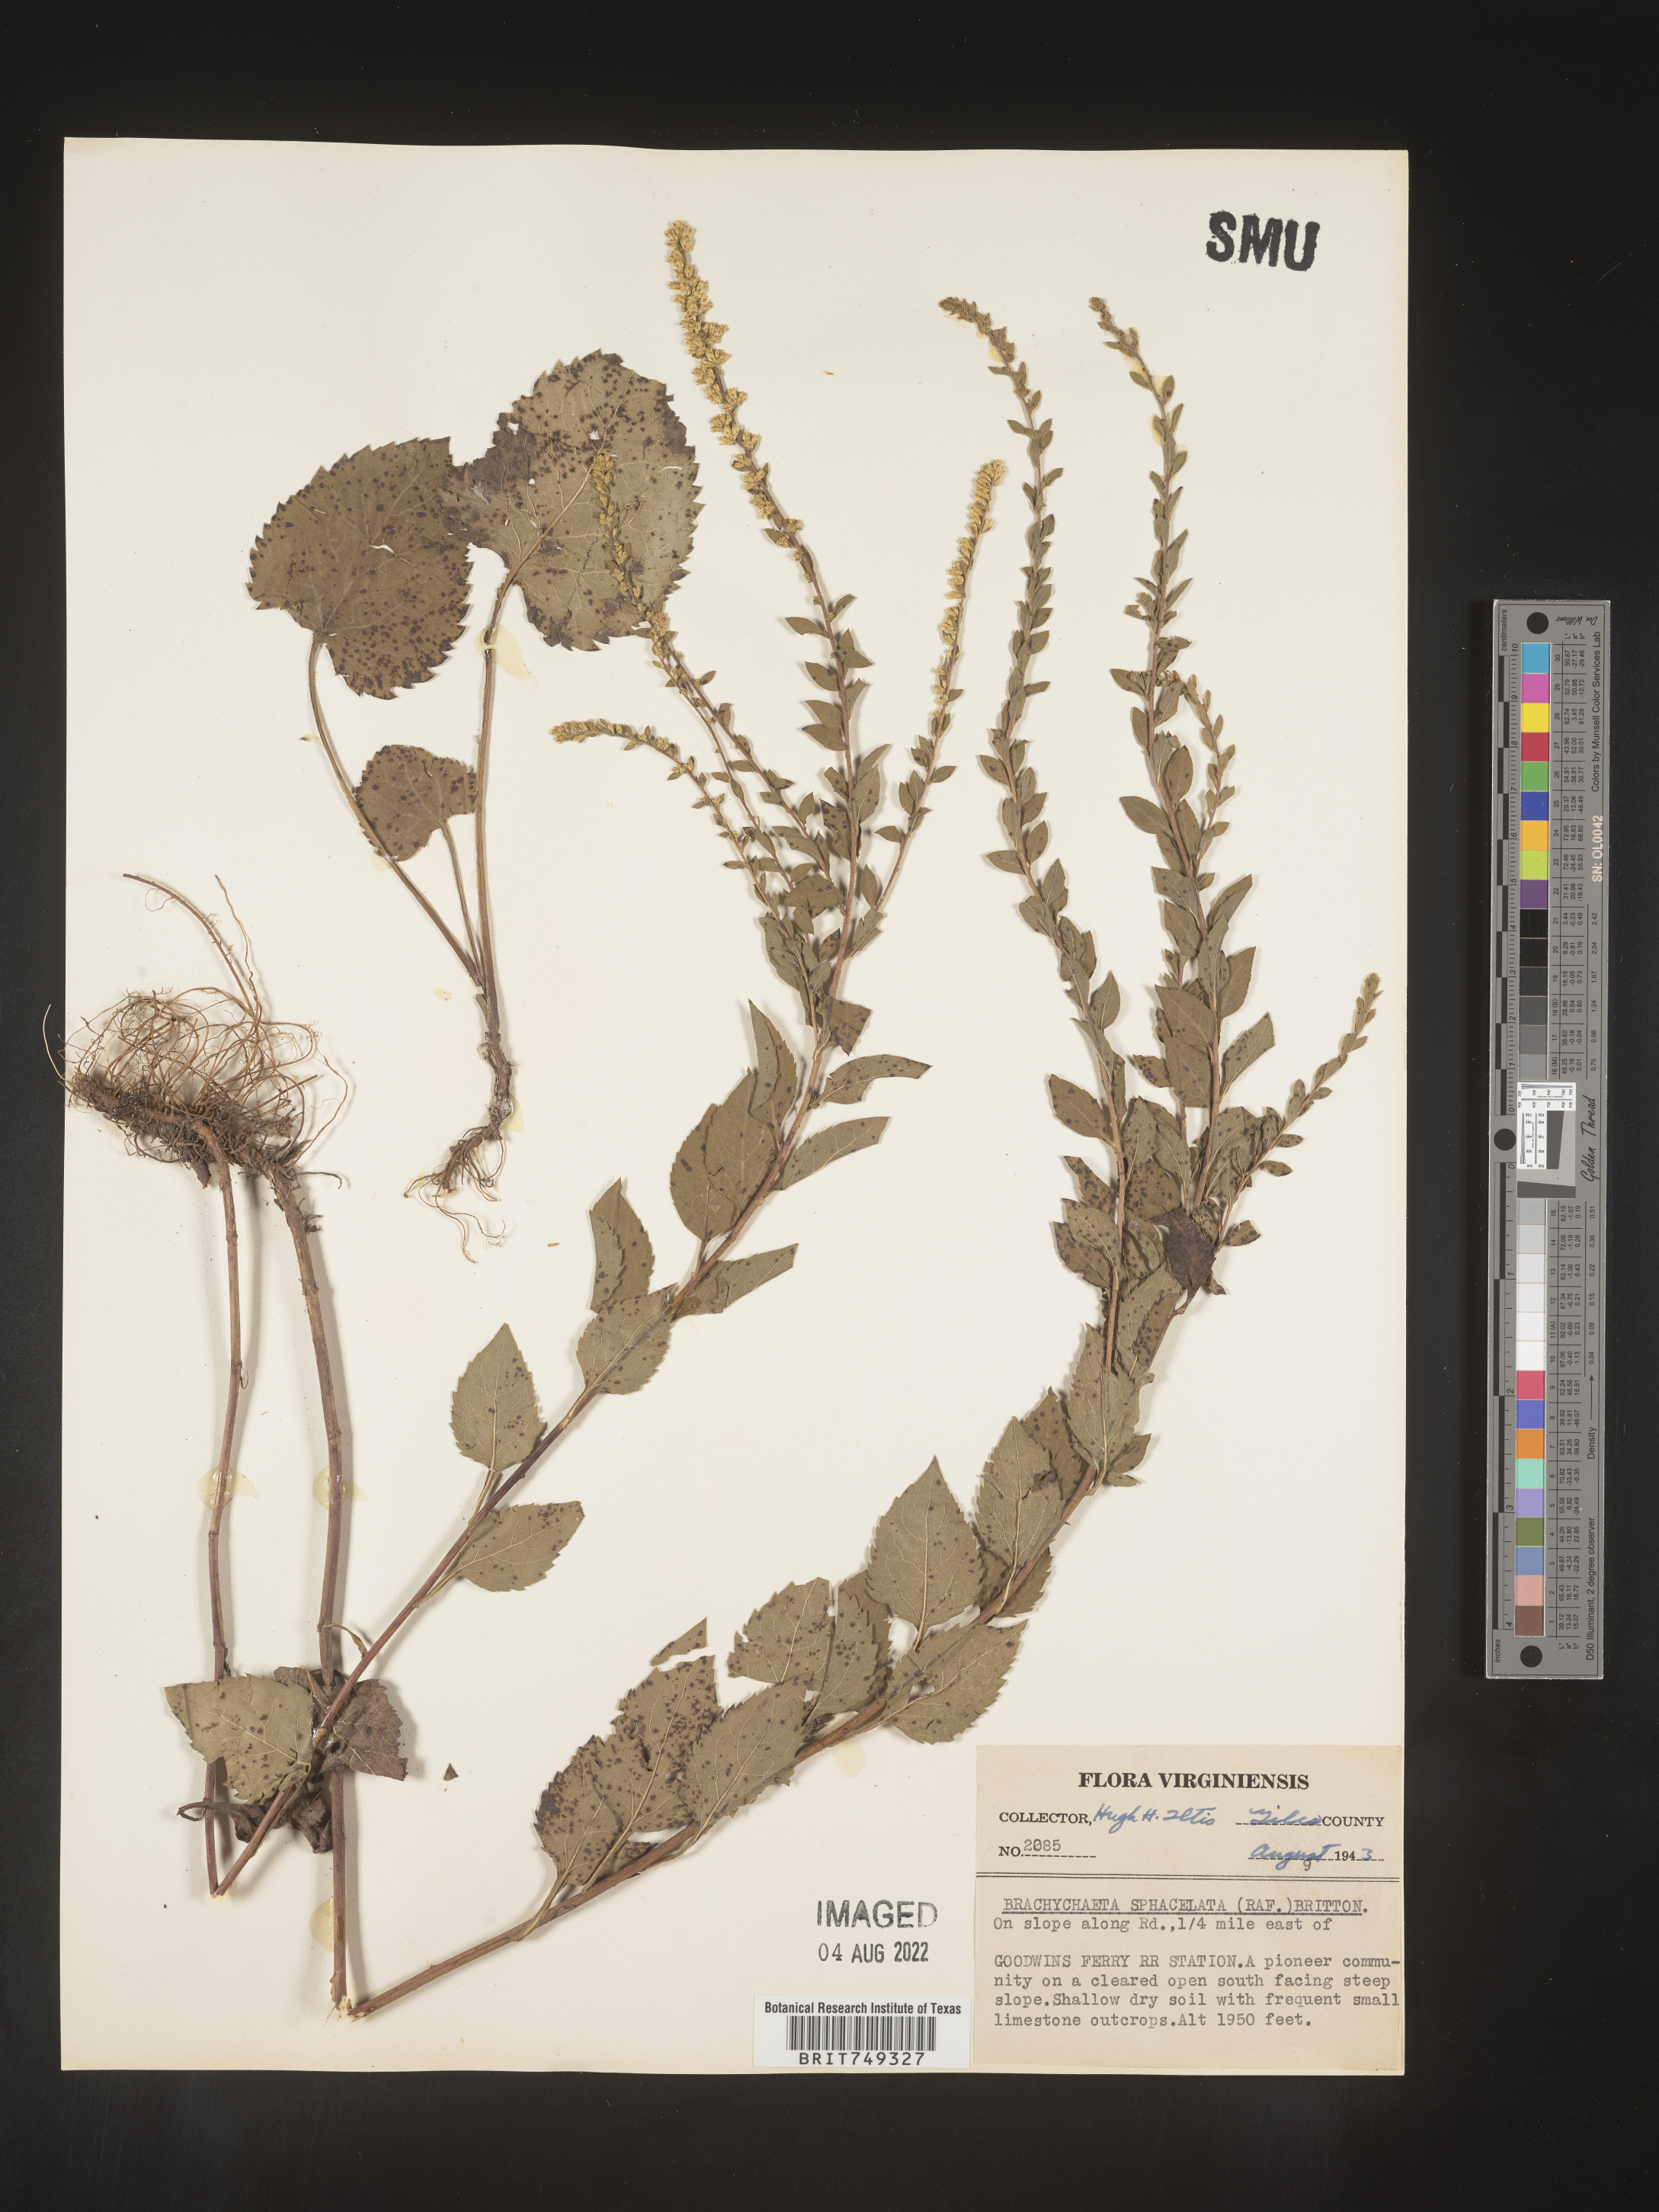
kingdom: Plantae
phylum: Tracheophyta
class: Magnoliopsida
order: Asterales
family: Asteraceae
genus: Solidago
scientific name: Solidago sphacelata
